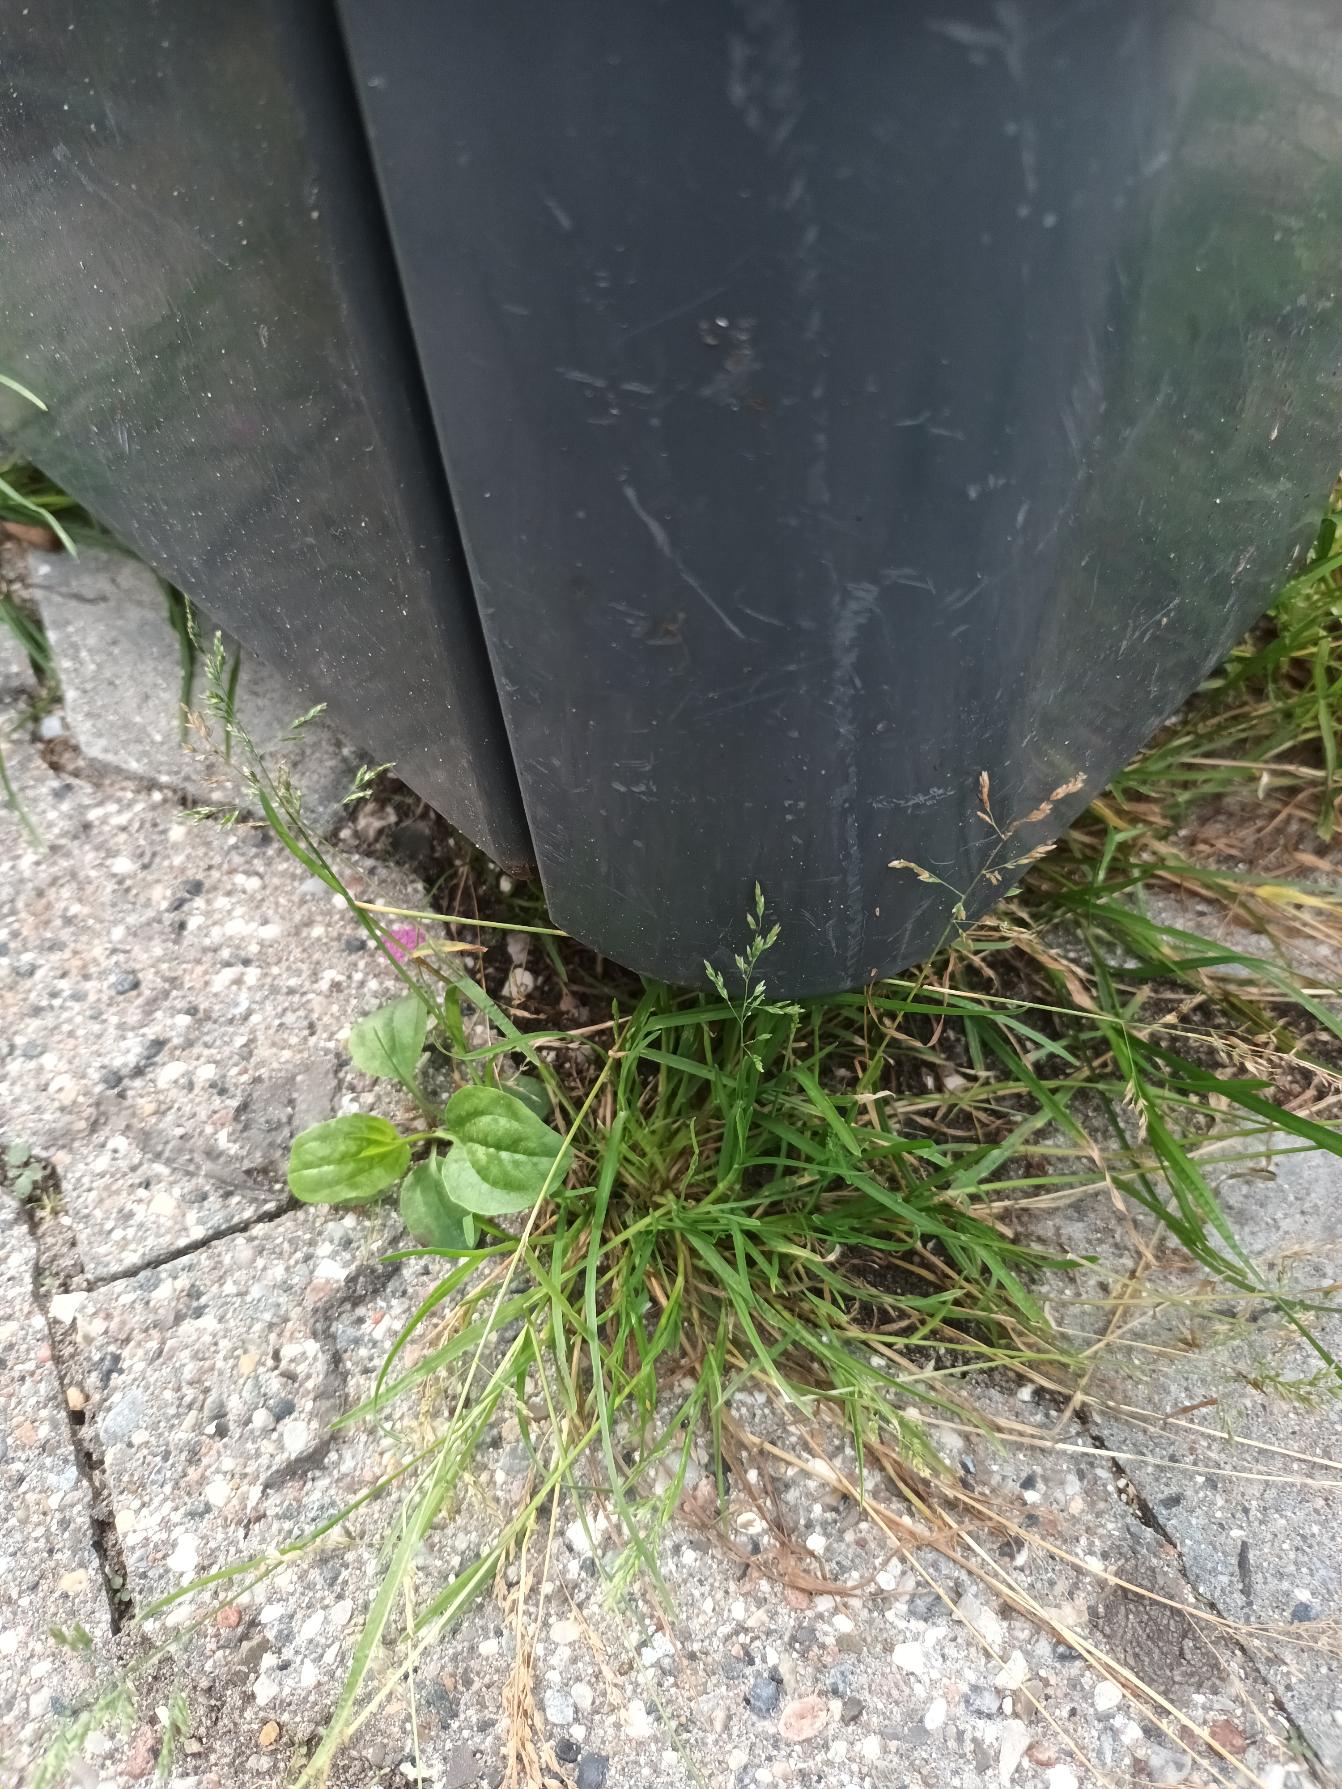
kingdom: Plantae
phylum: Tracheophyta
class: Liliopsida
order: Poales
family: Poaceae
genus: Poa
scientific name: Poa annua
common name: Enårig rapgræs
